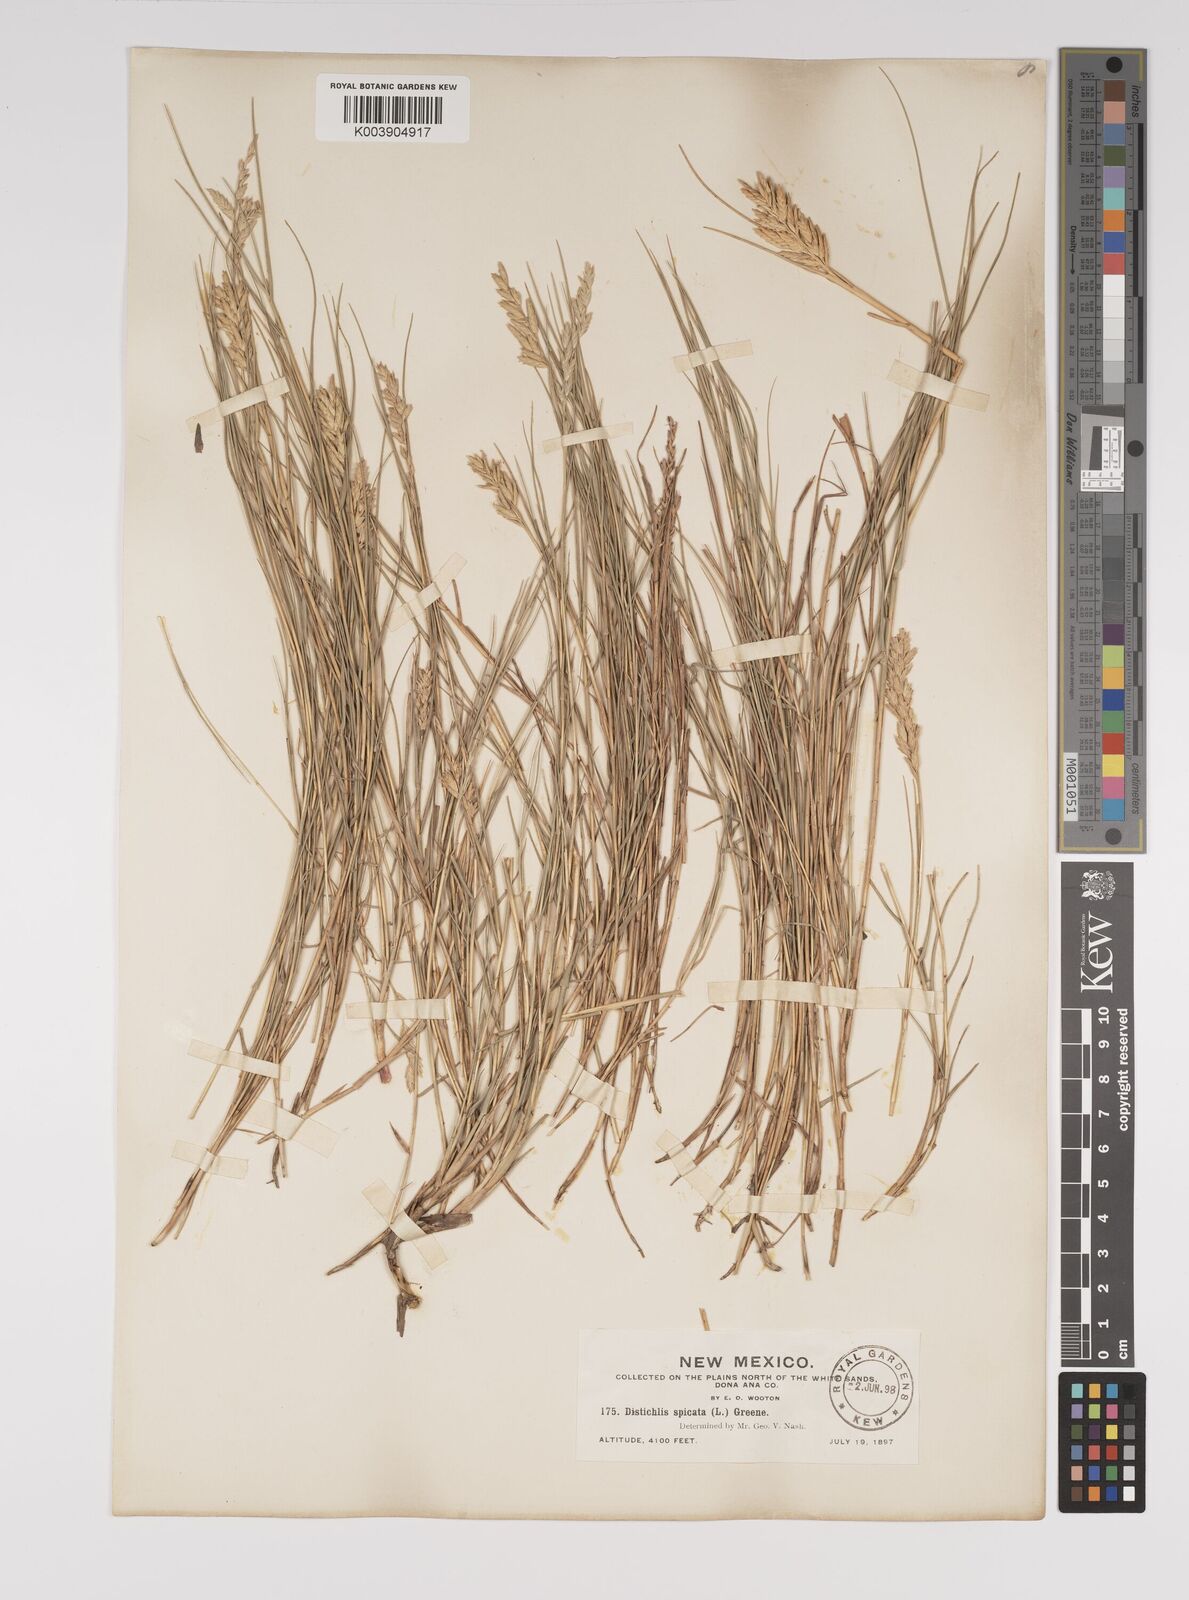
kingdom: Plantae
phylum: Tracheophyta
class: Liliopsida
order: Poales
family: Poaceae
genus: Distichlis
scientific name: Distichlis spicata
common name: Saltgrass
